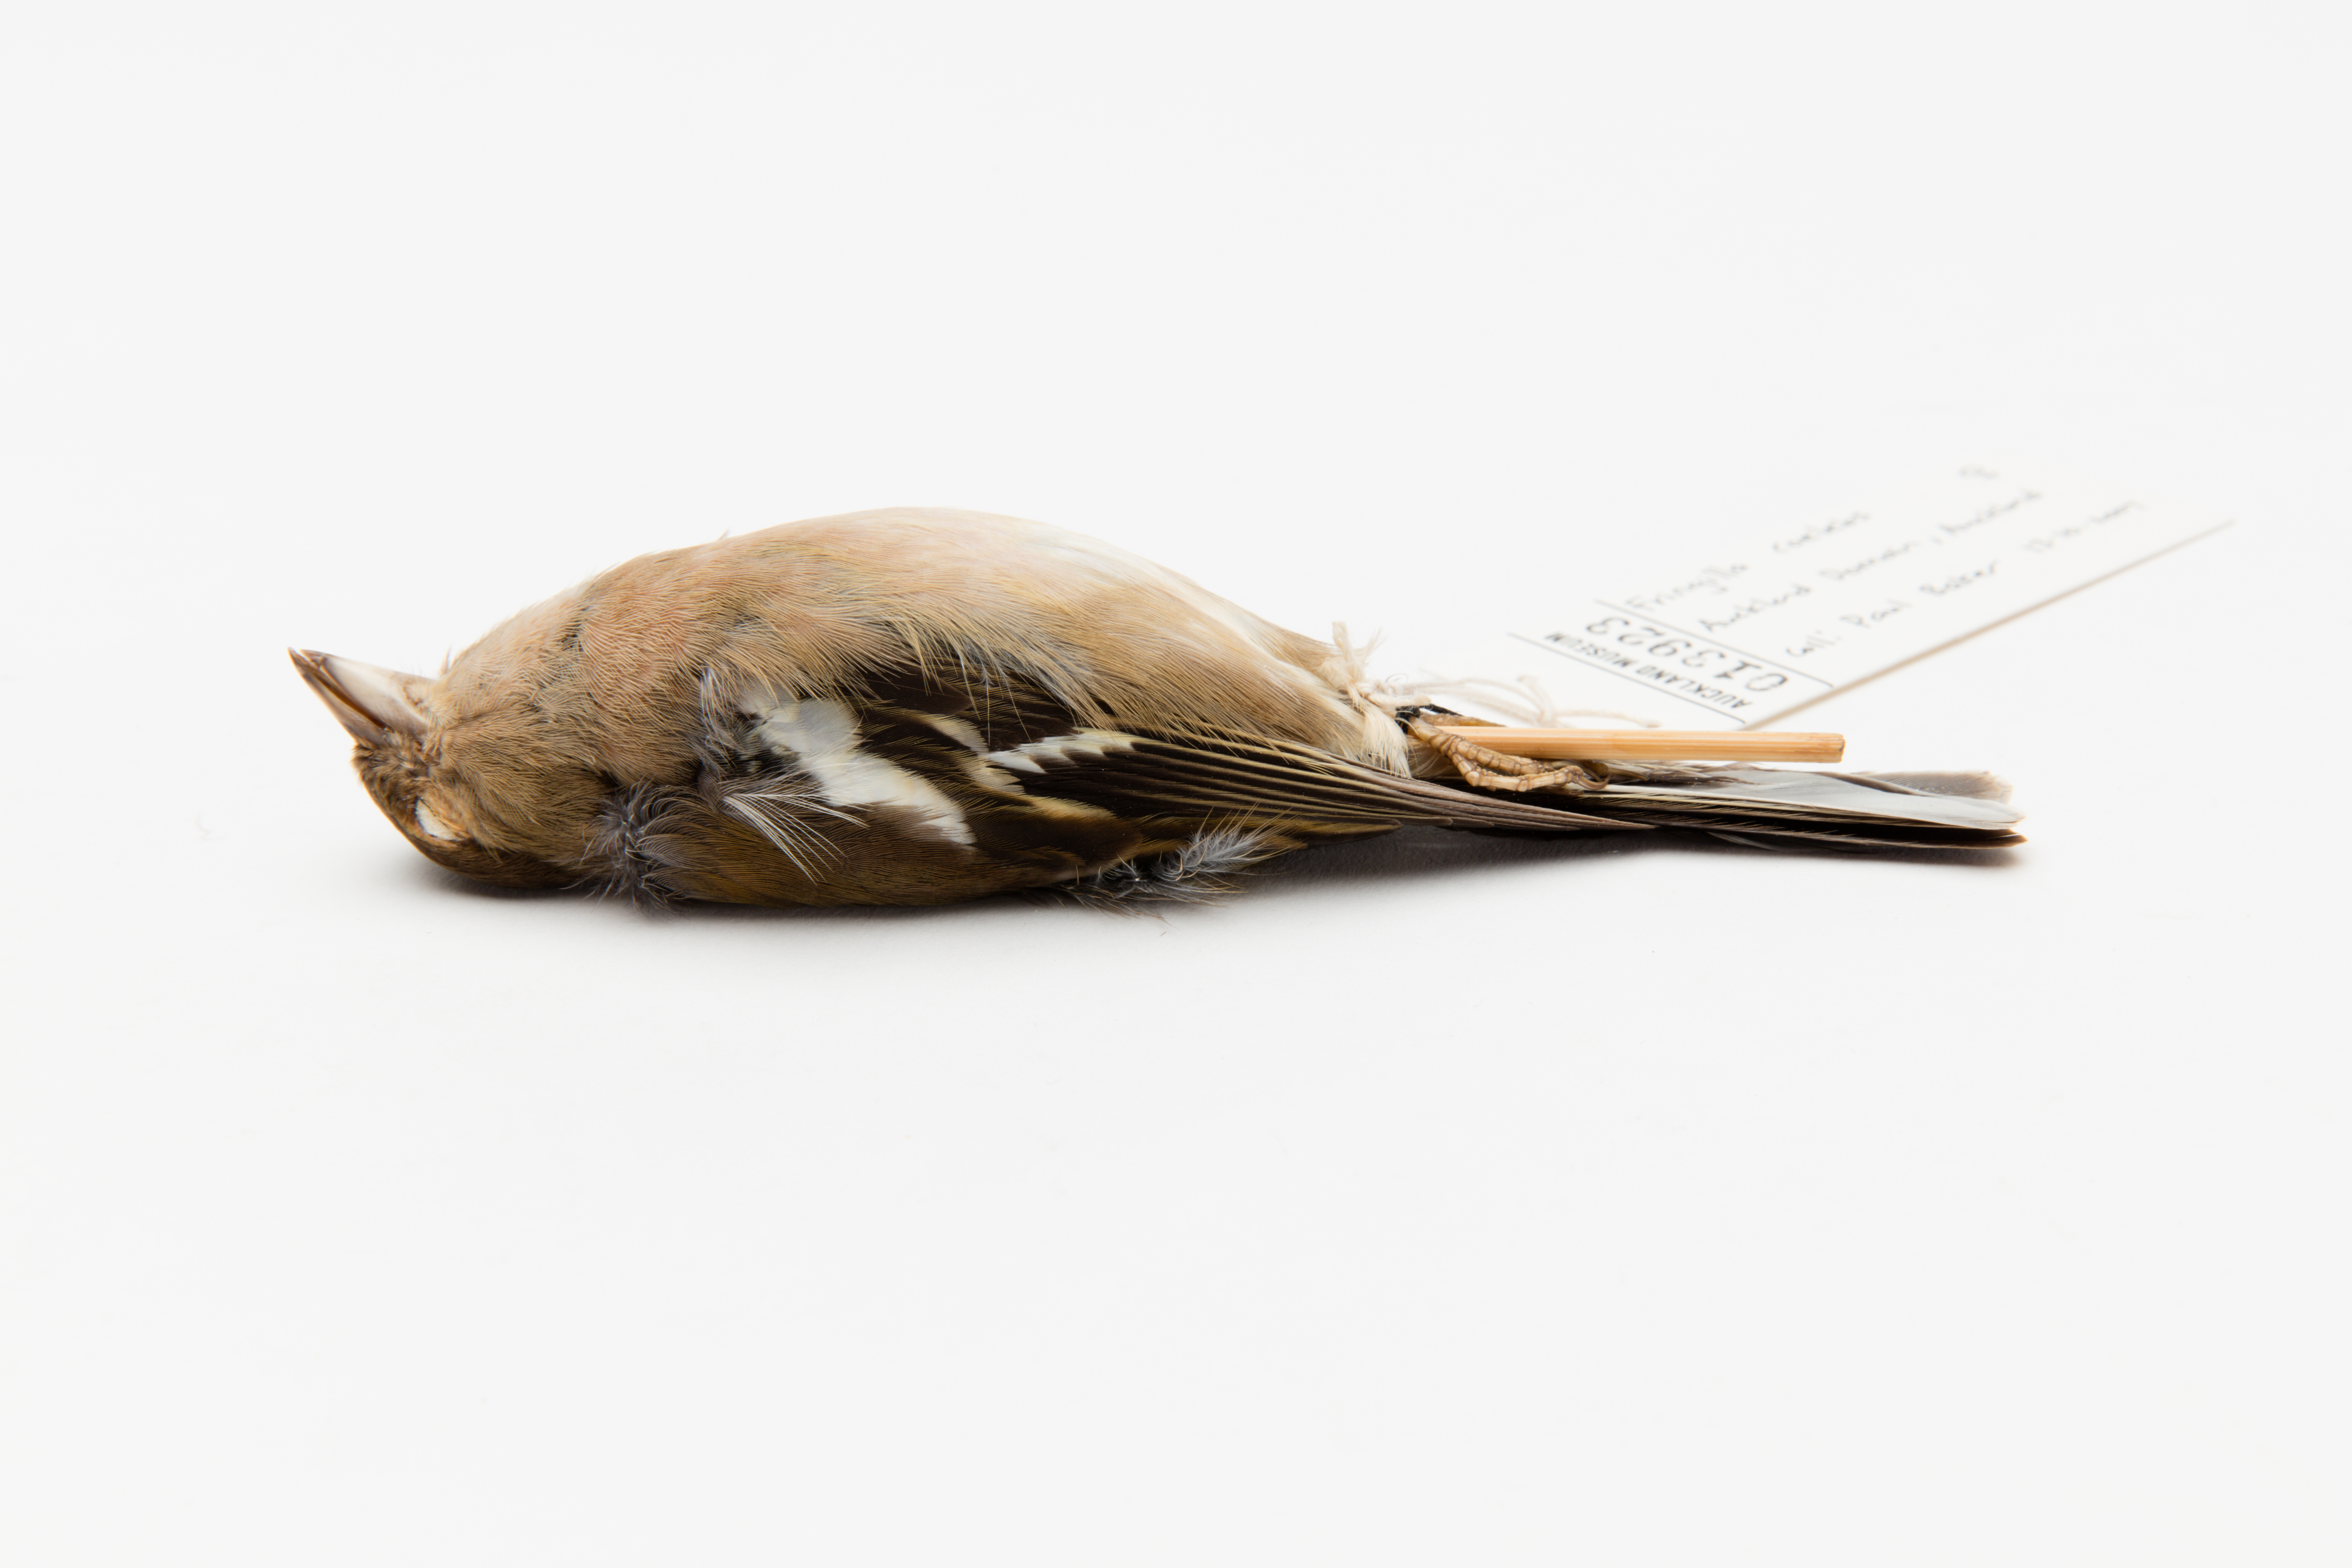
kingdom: Animalia
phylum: Chordata
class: Aves
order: Passeriformes
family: Fringillidae
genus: Fringilla
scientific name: Fringilla coelebs
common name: Common chaffinch
